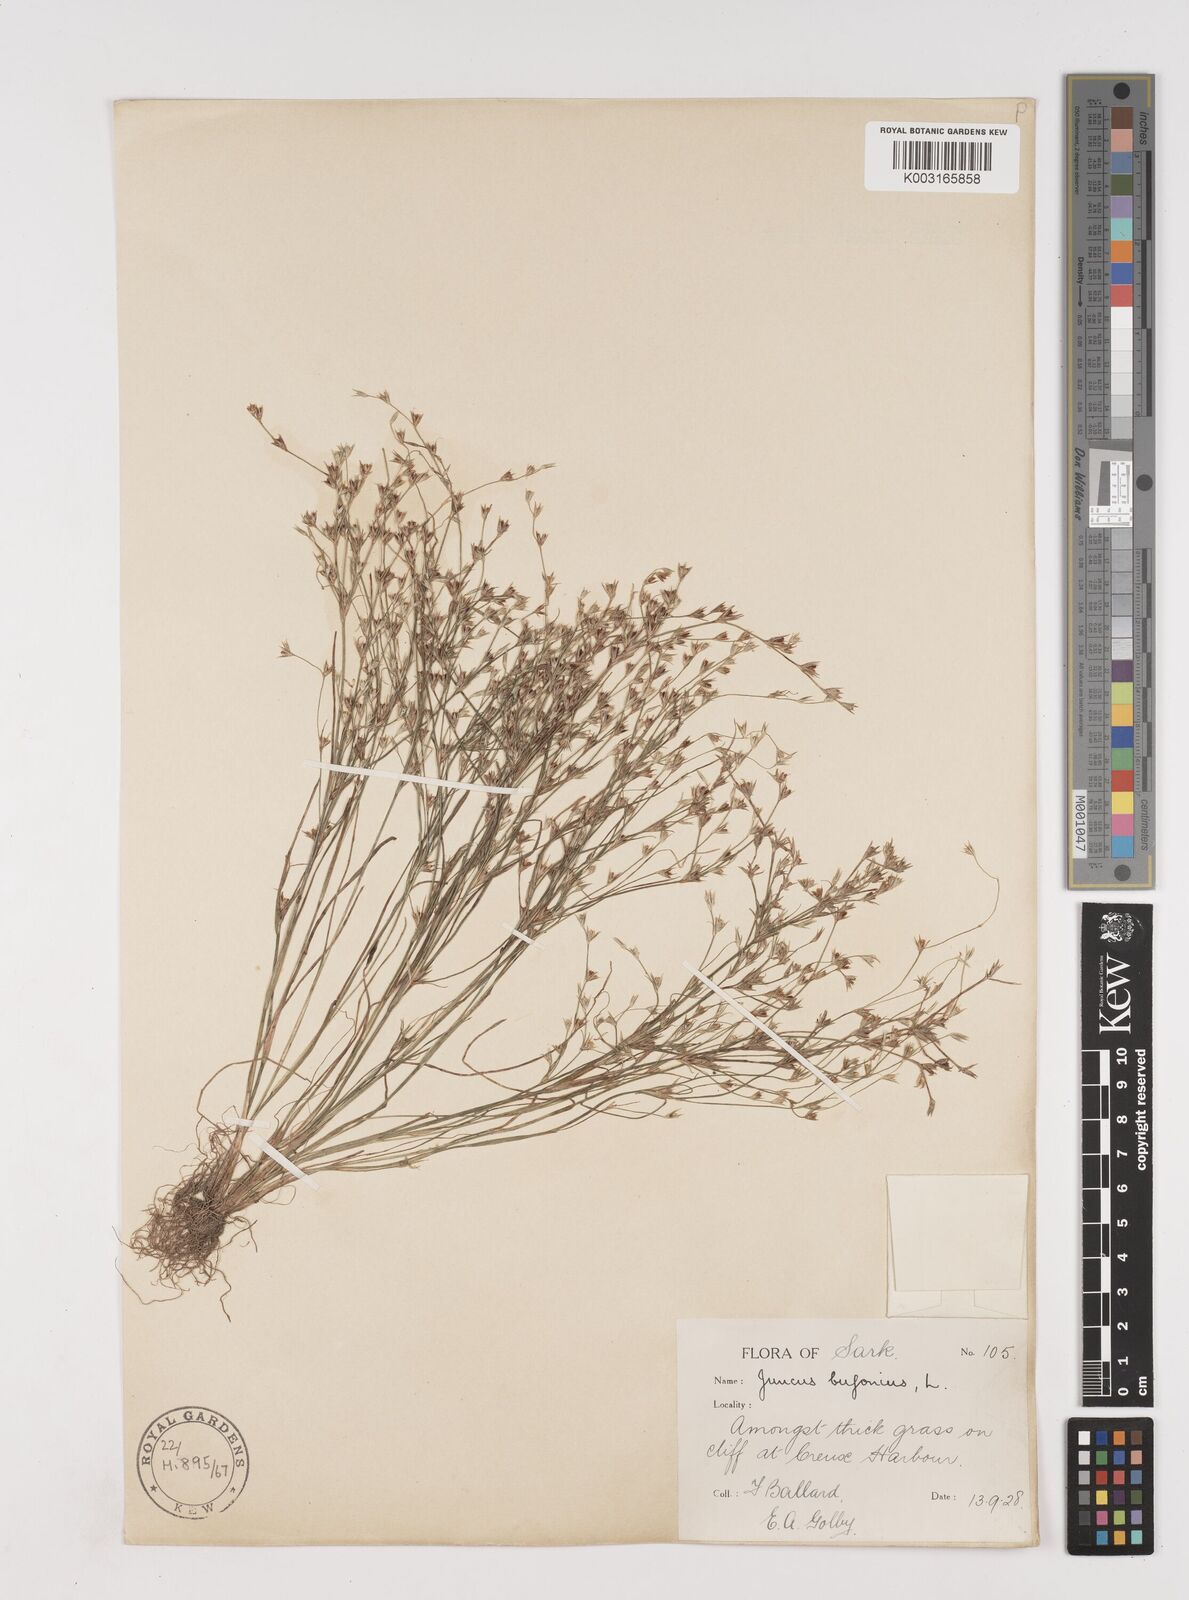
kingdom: Plantae
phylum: Tracheophyta
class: Liliopsida
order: Poales
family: Juncaceae
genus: Juncus
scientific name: Juncus bufonius
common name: Toad rush
